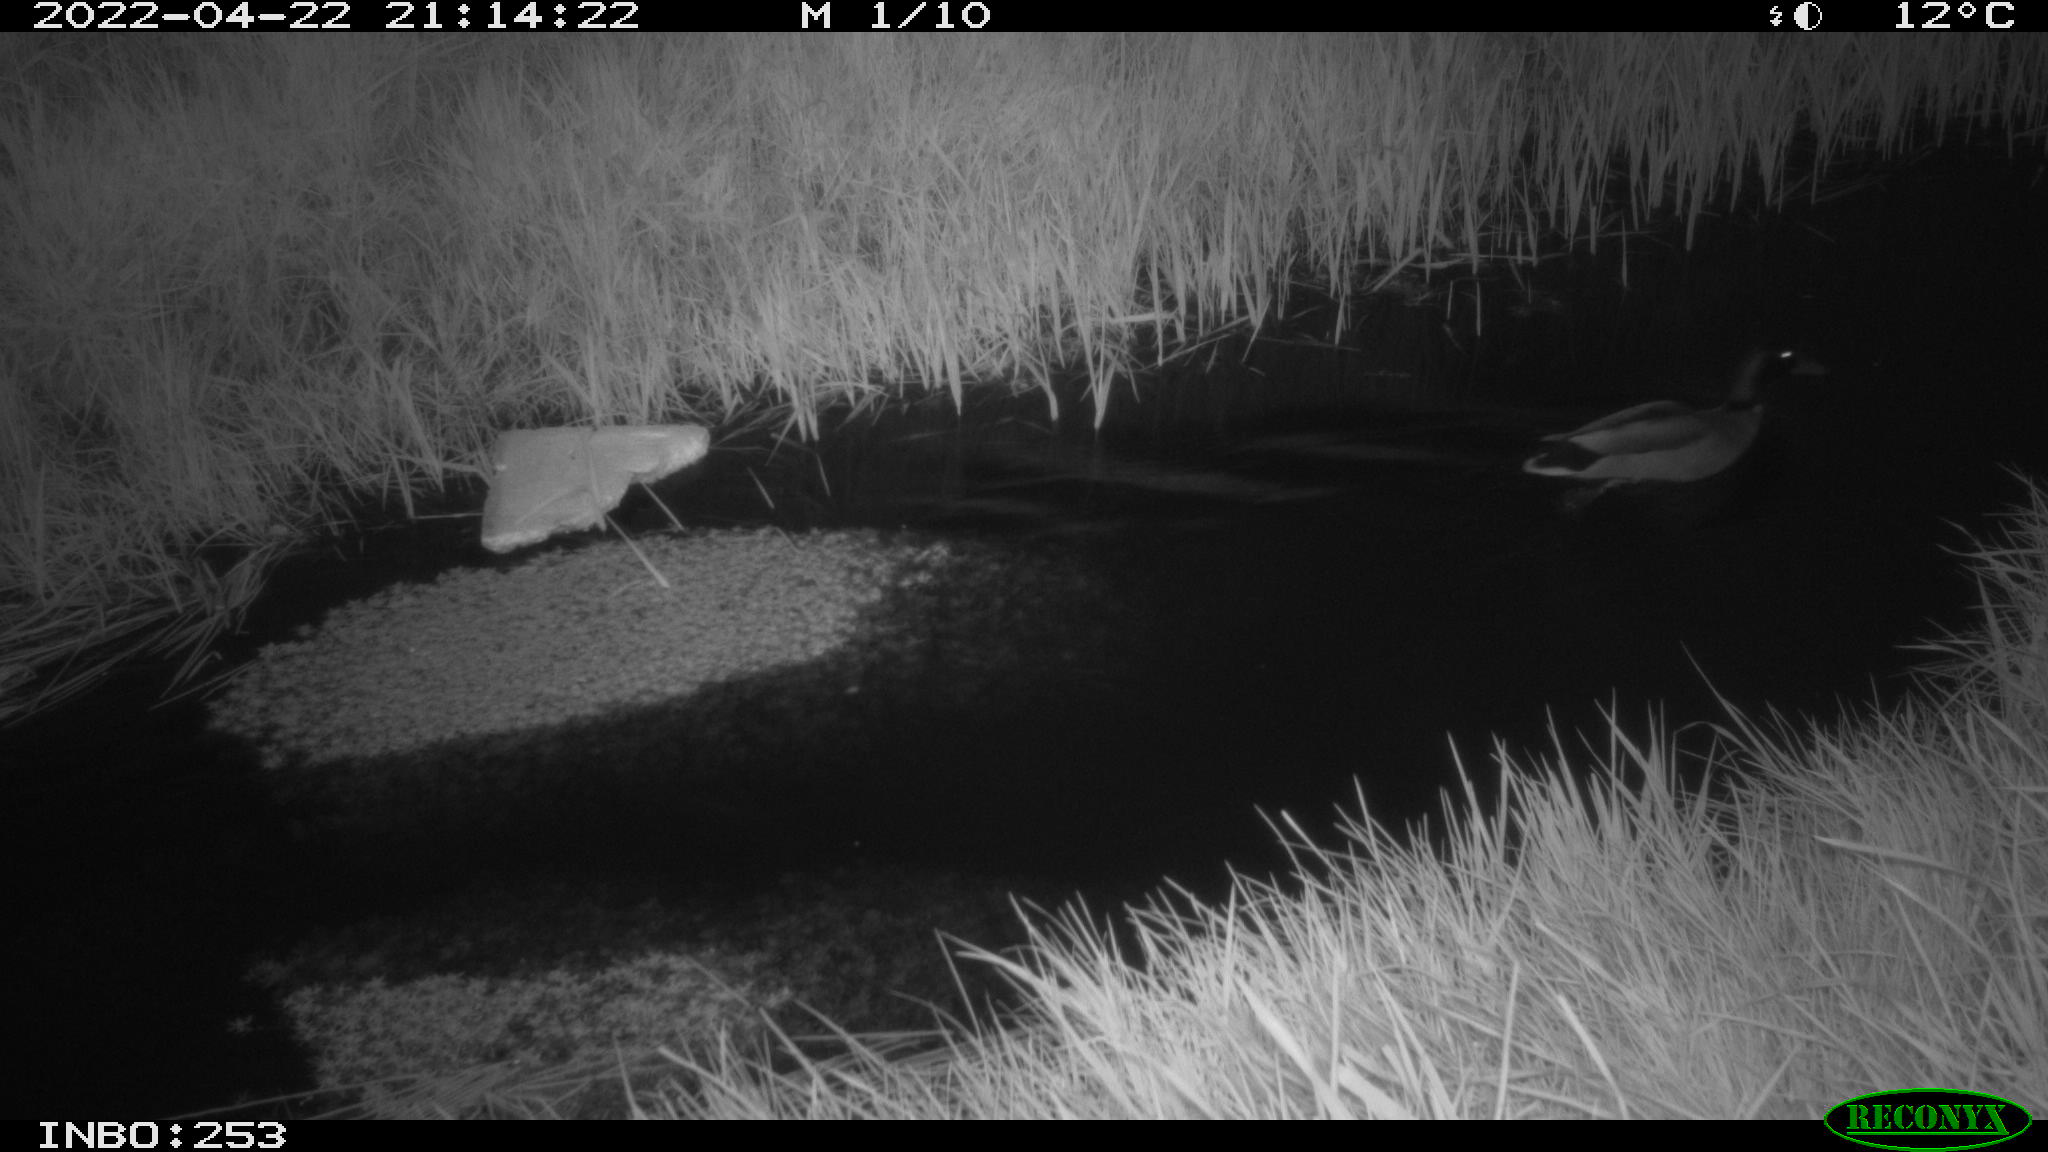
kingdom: Animalia
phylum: Chordata
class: Aves
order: Anseriformes
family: Anatidae
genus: Anas
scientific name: Anas platyrhynchos
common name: Mallard
